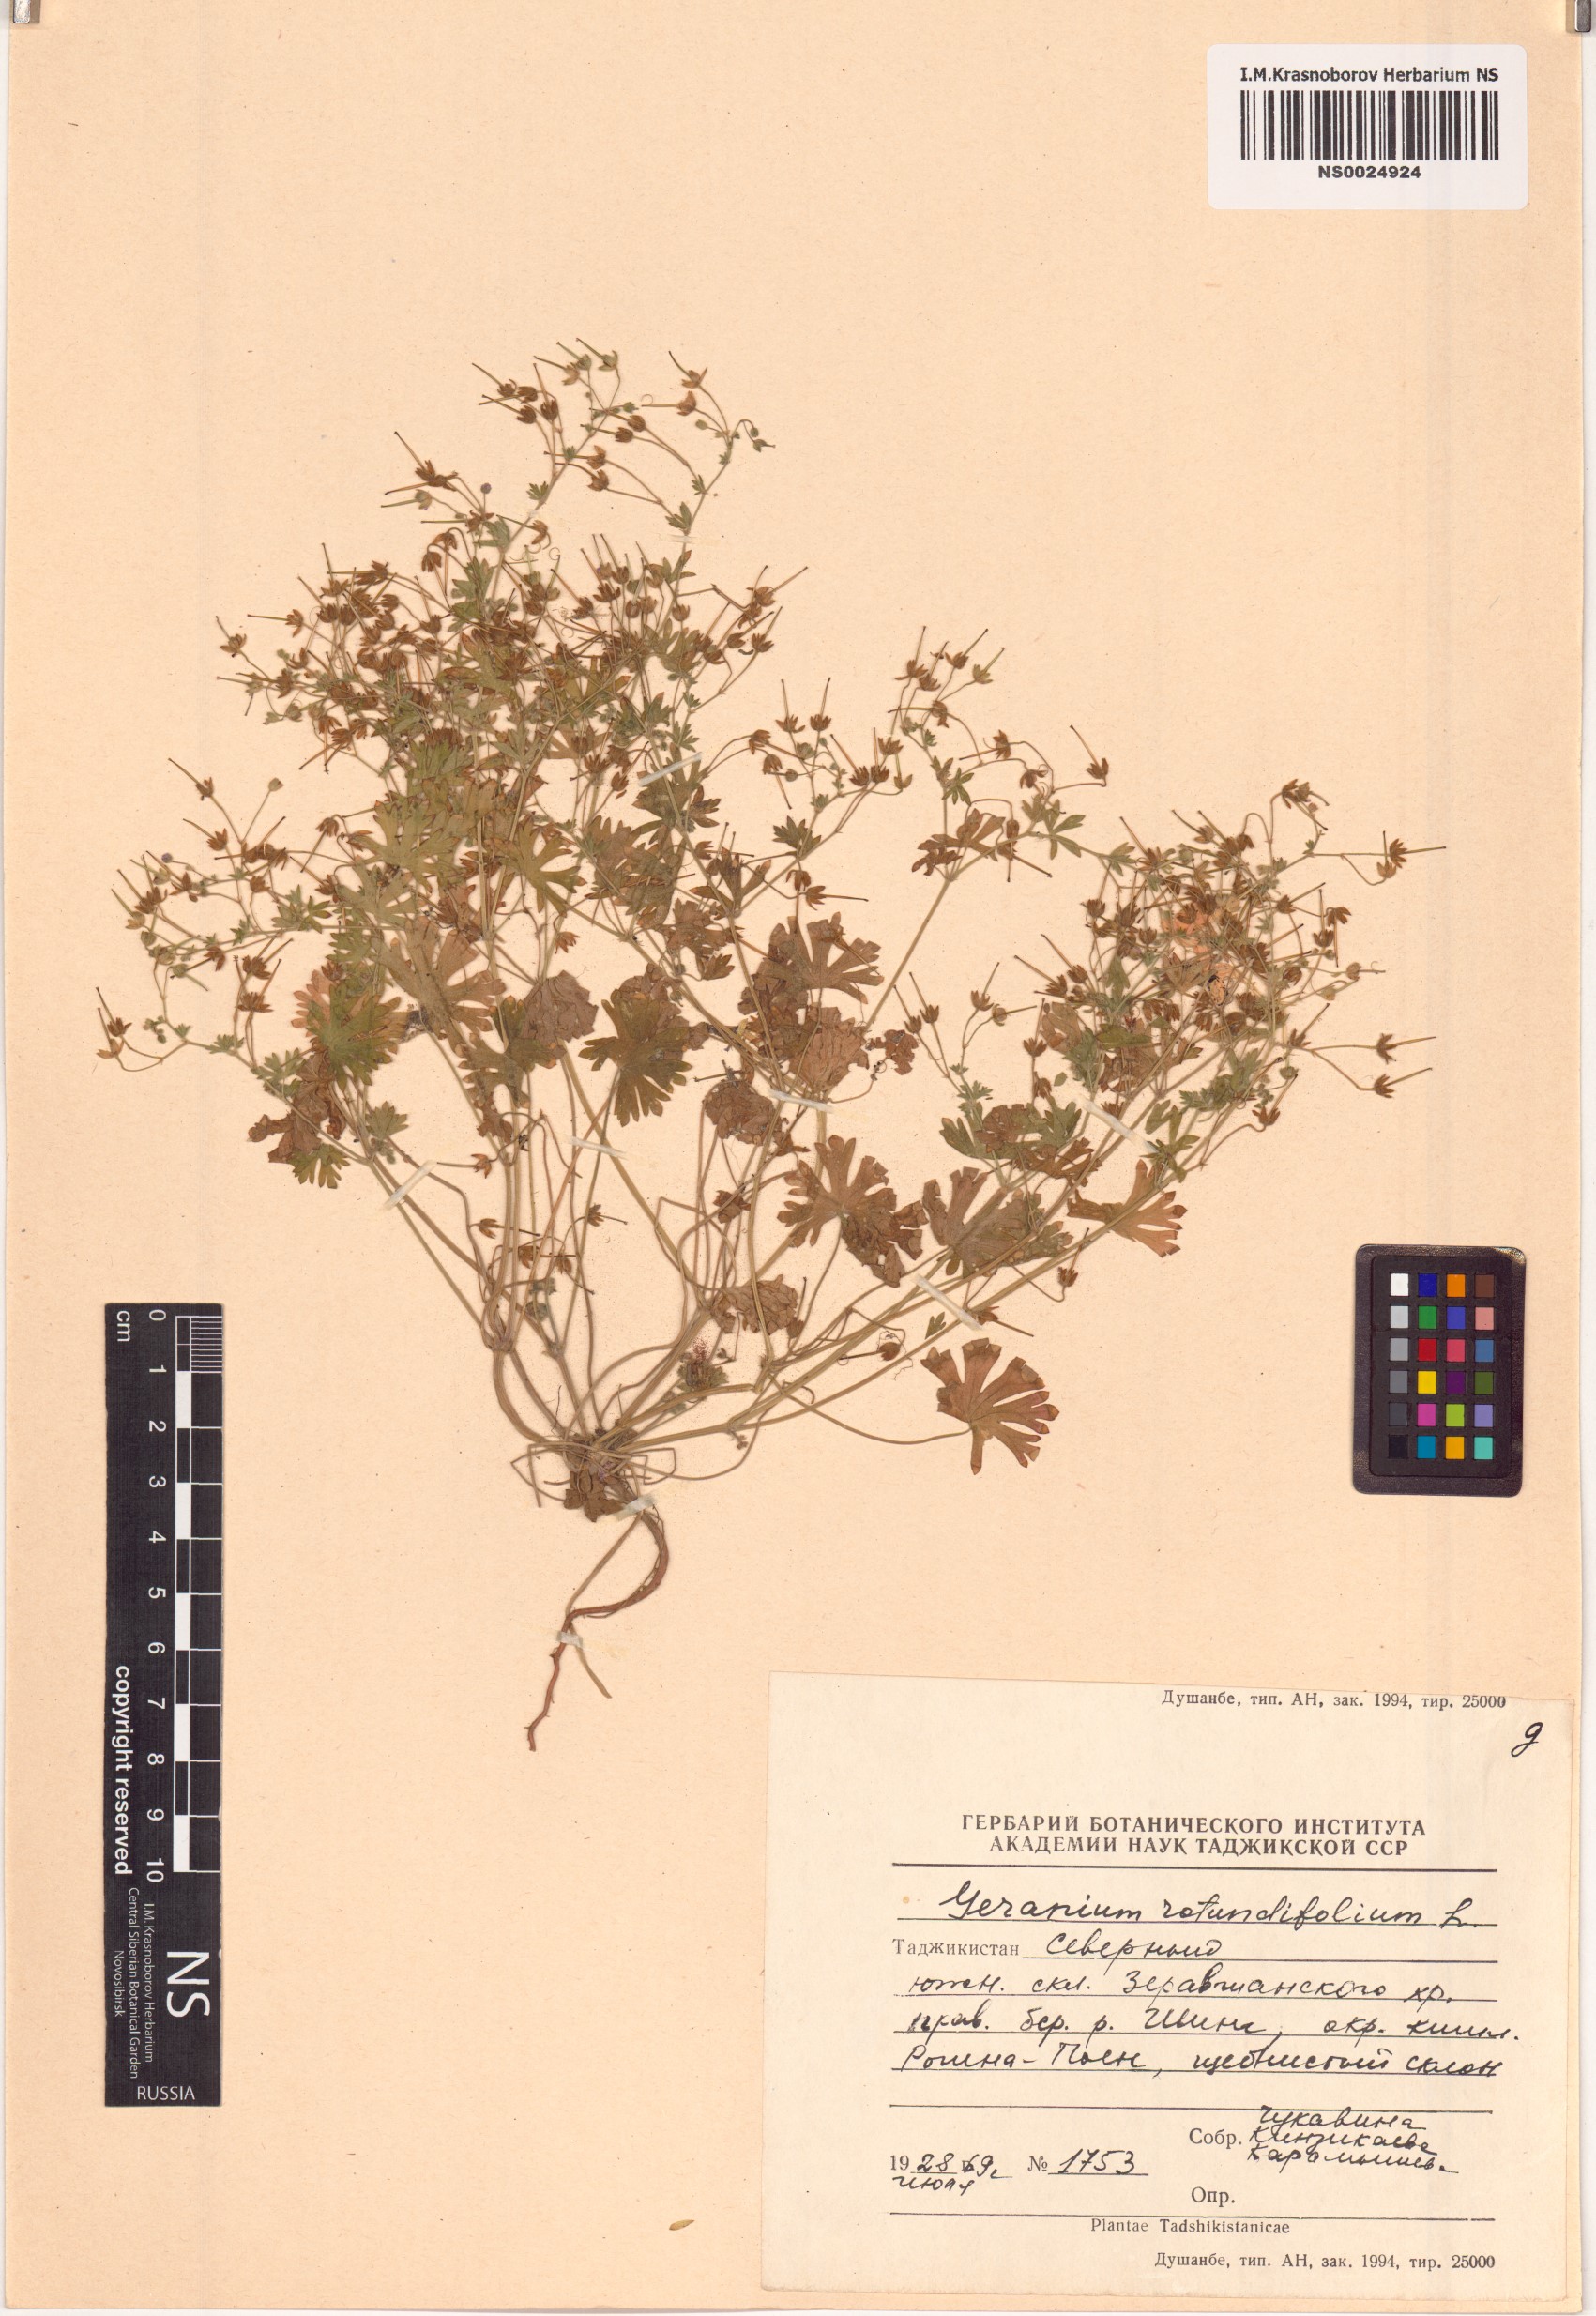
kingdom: Plantae
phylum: Tracheophyta
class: Magnoliopsida
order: Geraniales
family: Geraniaceae
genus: Geranium
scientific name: Geranium rotundifolium
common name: Round-leaved crane's-bill
